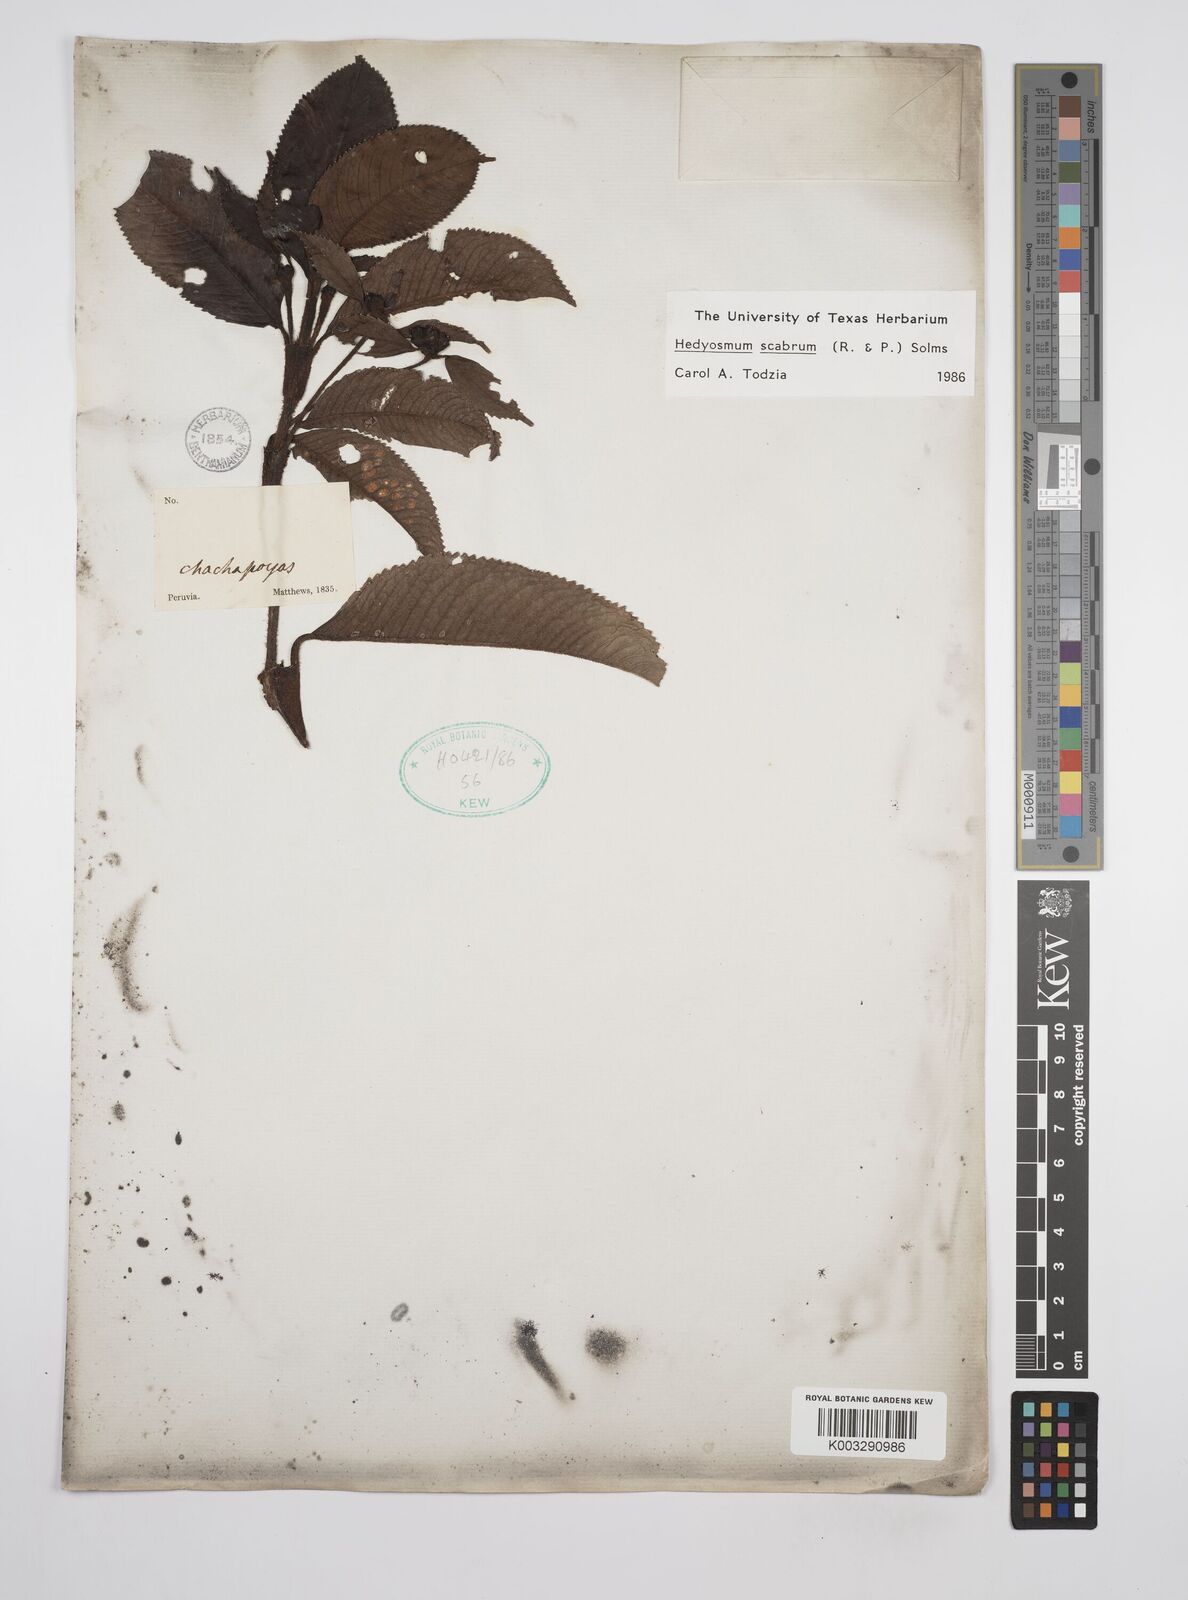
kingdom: Plantae
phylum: Tracheophyta
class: Magnoliopsida
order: Chloranthales
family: Chloranthaceae
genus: Hedyosmum
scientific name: Hedyosmum scabrum
